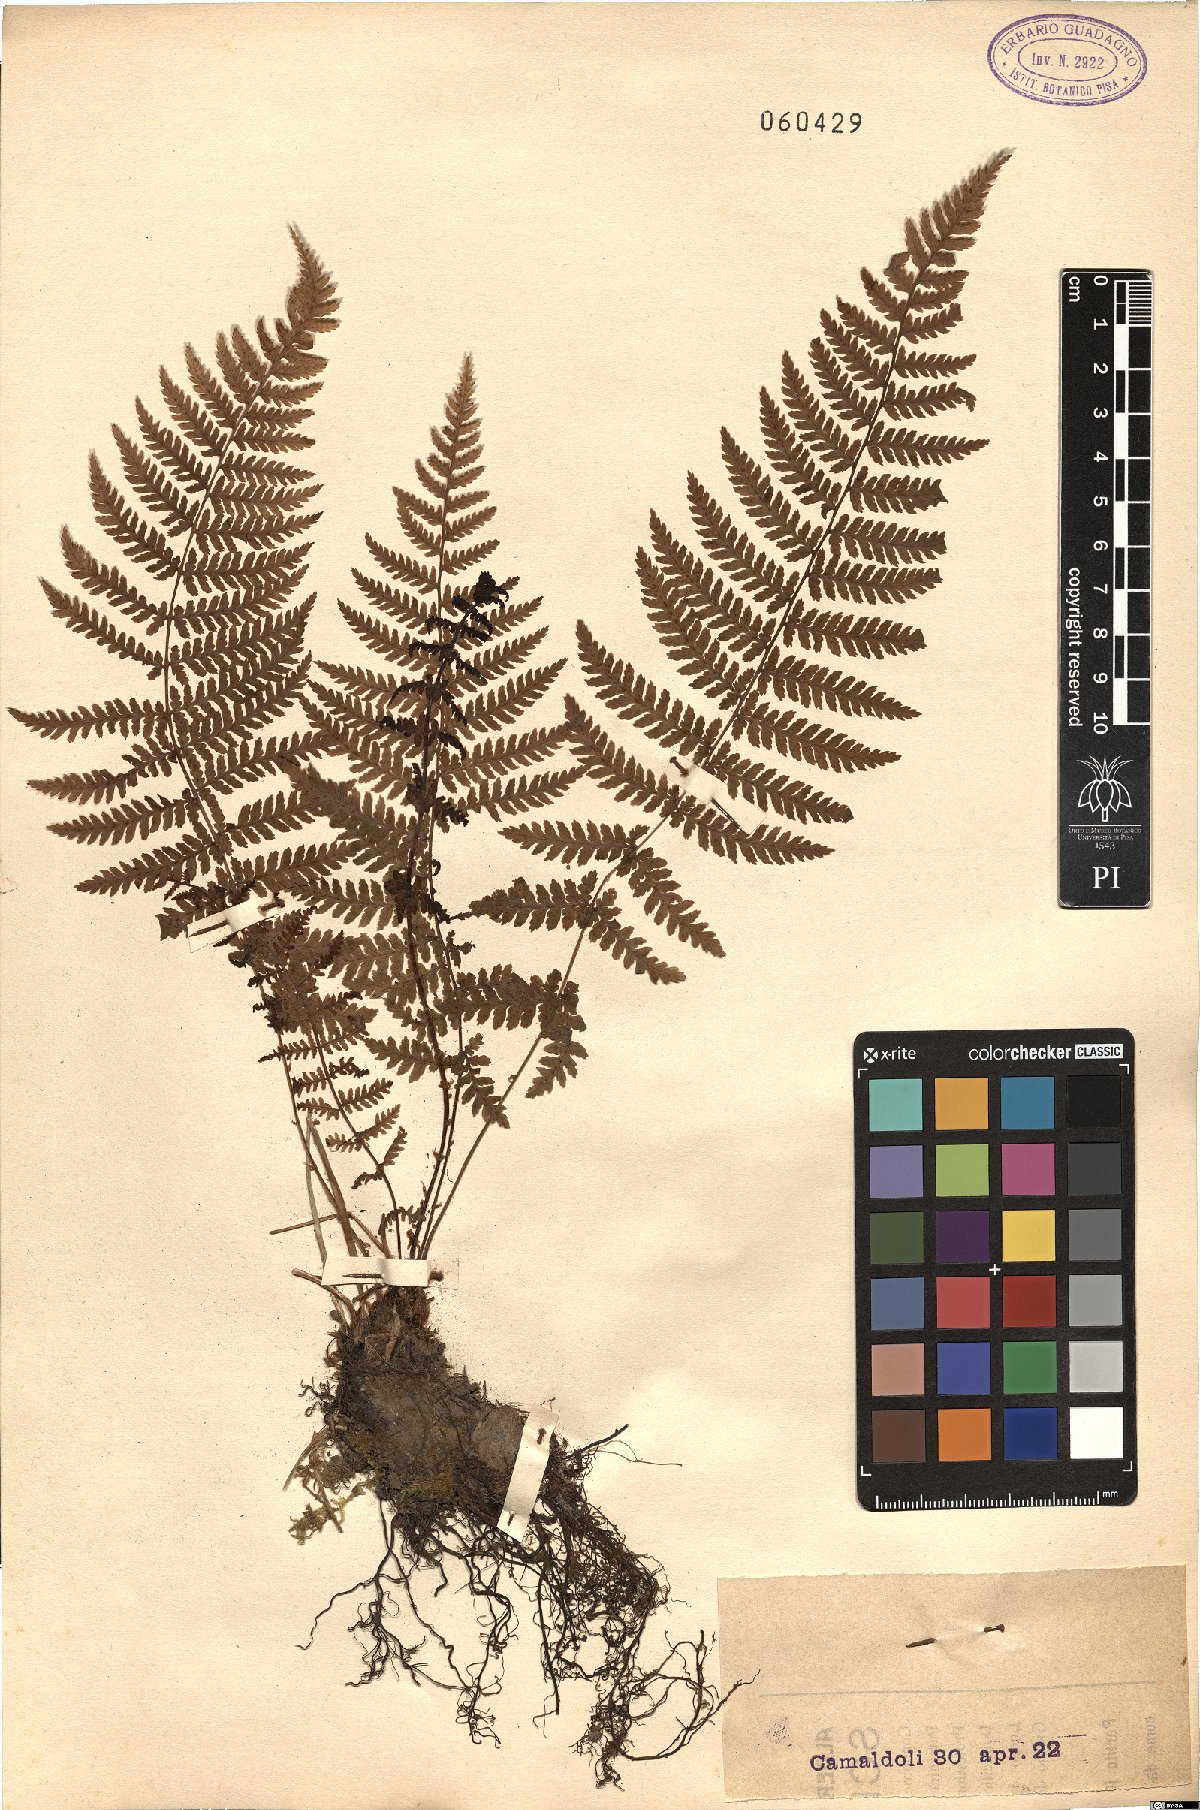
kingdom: Plantae
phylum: Tracheophyta
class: Polypodiopsida
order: Polypodiales
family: Dryopteridaceae
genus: Dryopteris
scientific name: Dryopteris
